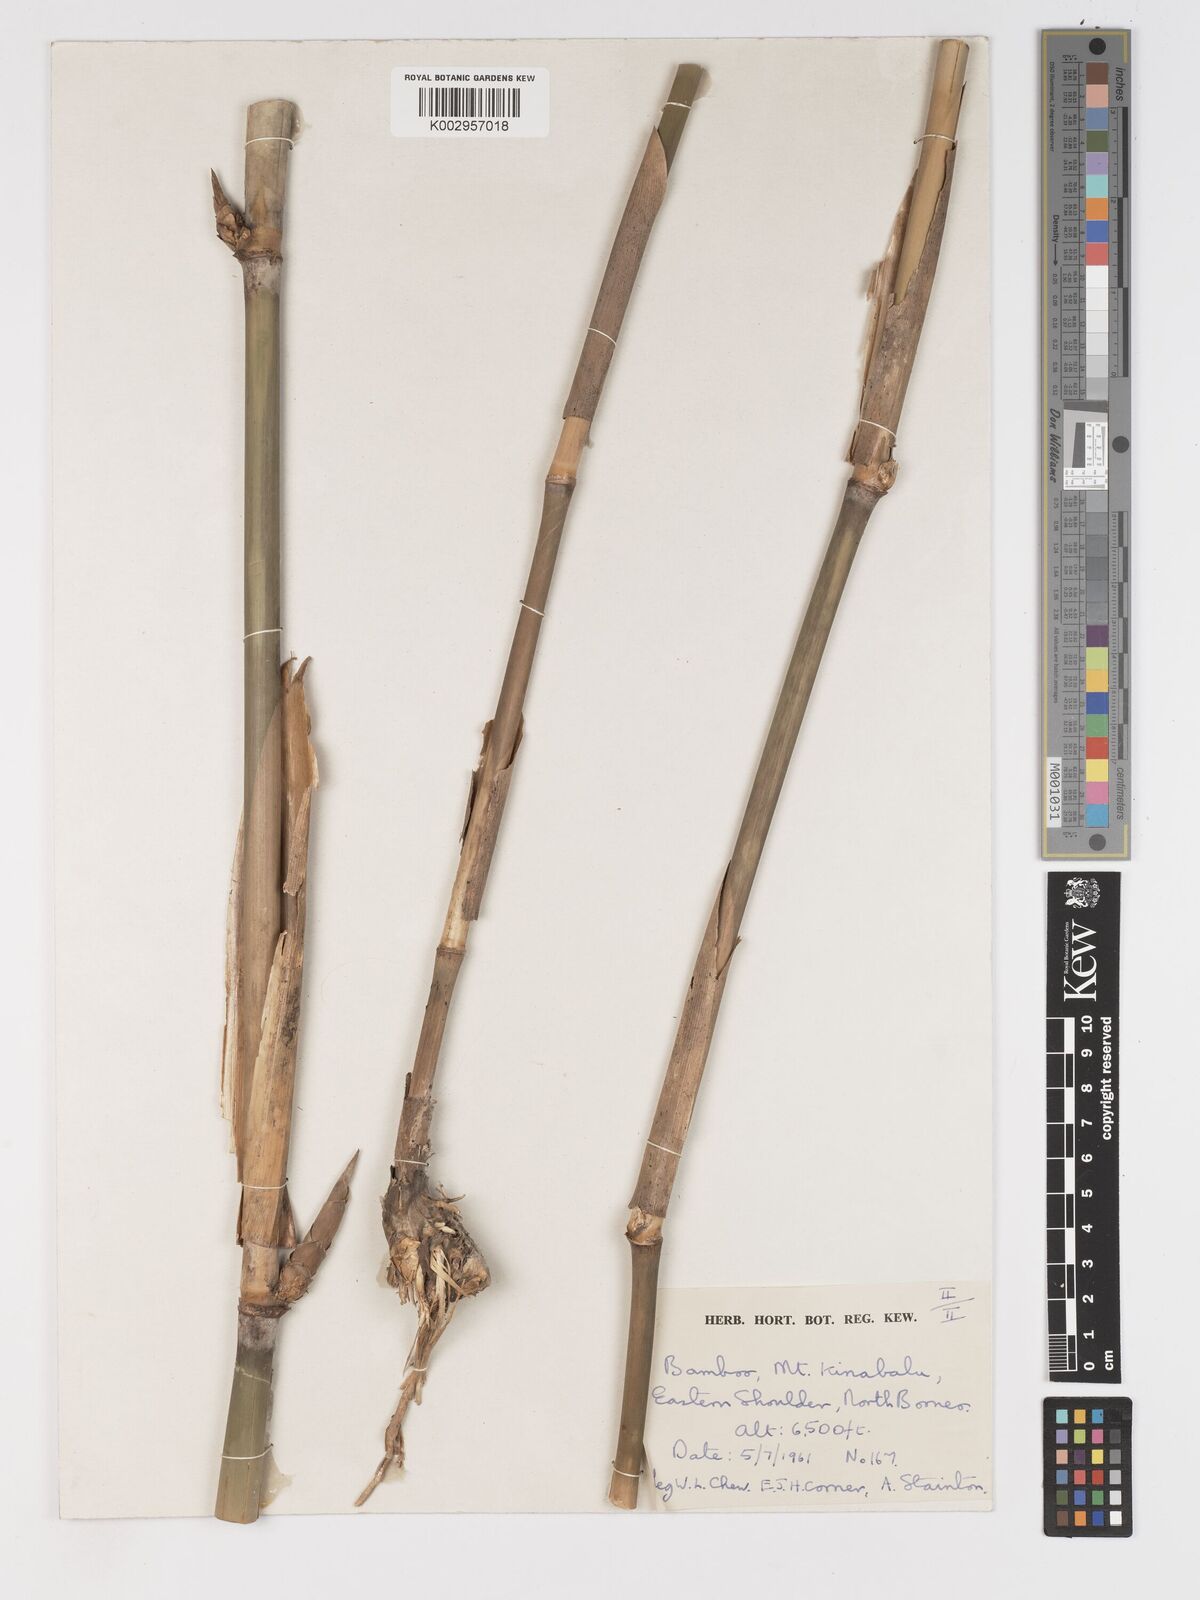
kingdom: Plantae
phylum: Tracheophyta
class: Liliopsida
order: Poales
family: Poaceae
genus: Racemobambos
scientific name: Racemobambos gibbsiae
